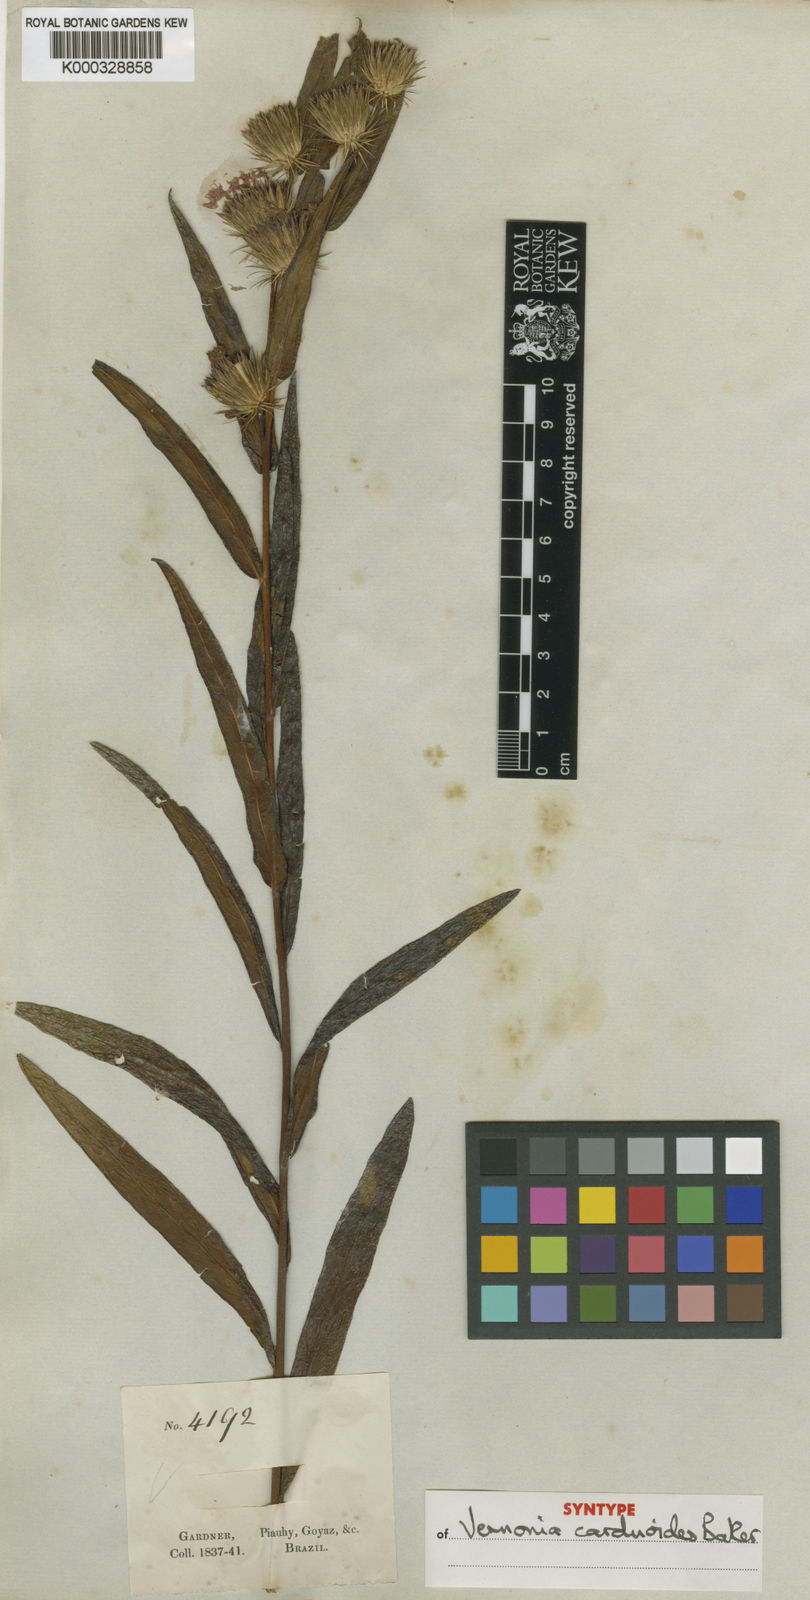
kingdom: Plantae
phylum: Tracheophyta
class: Magnoliopsida
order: Asterales
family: Asteraceae
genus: Lessingianthus
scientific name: Lessingianthus carduoides
